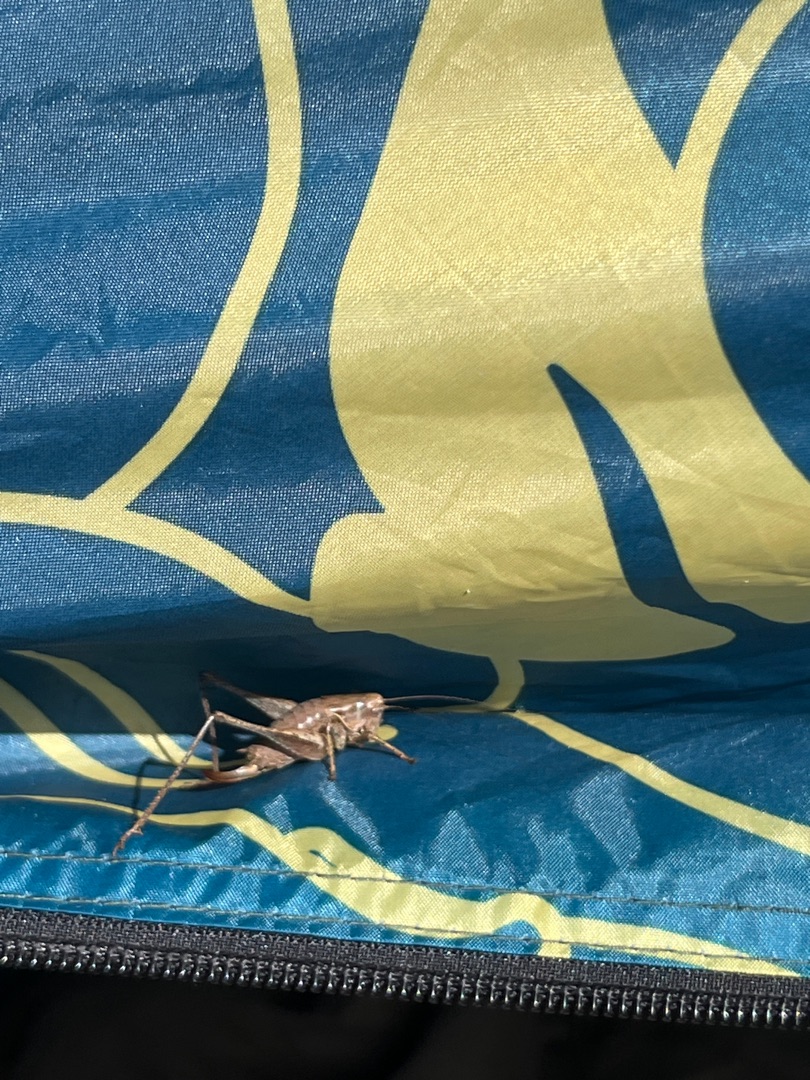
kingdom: Animalia
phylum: Arthropoda
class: Insecta
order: Orthoptera
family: Tettigoniidae
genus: Pholidoptera
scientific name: Pholidoptera griseoaptera
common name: Buskgræshoppe
